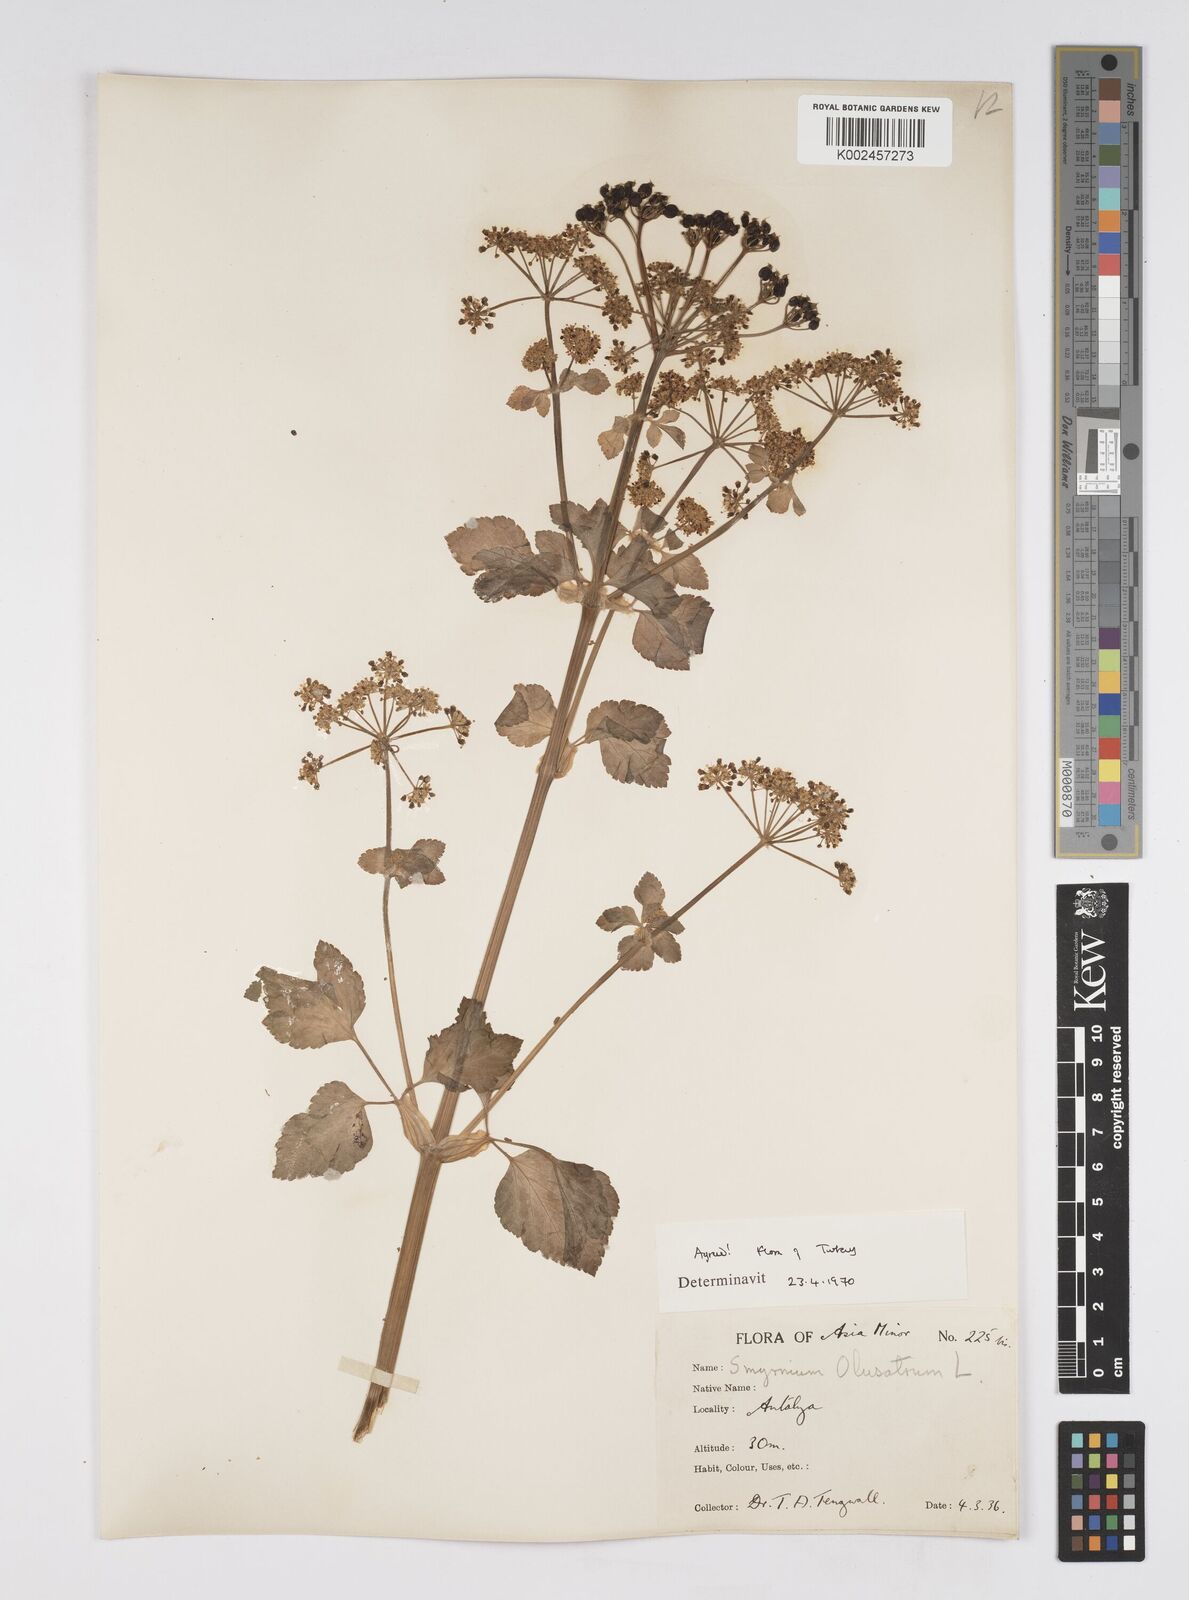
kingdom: Plantae
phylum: Tracheophyta
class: Magnoliopsida
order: Apiales
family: Apiaceae
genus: Smyrnium
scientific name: Smyrnium olusatrum
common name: Alexanders
